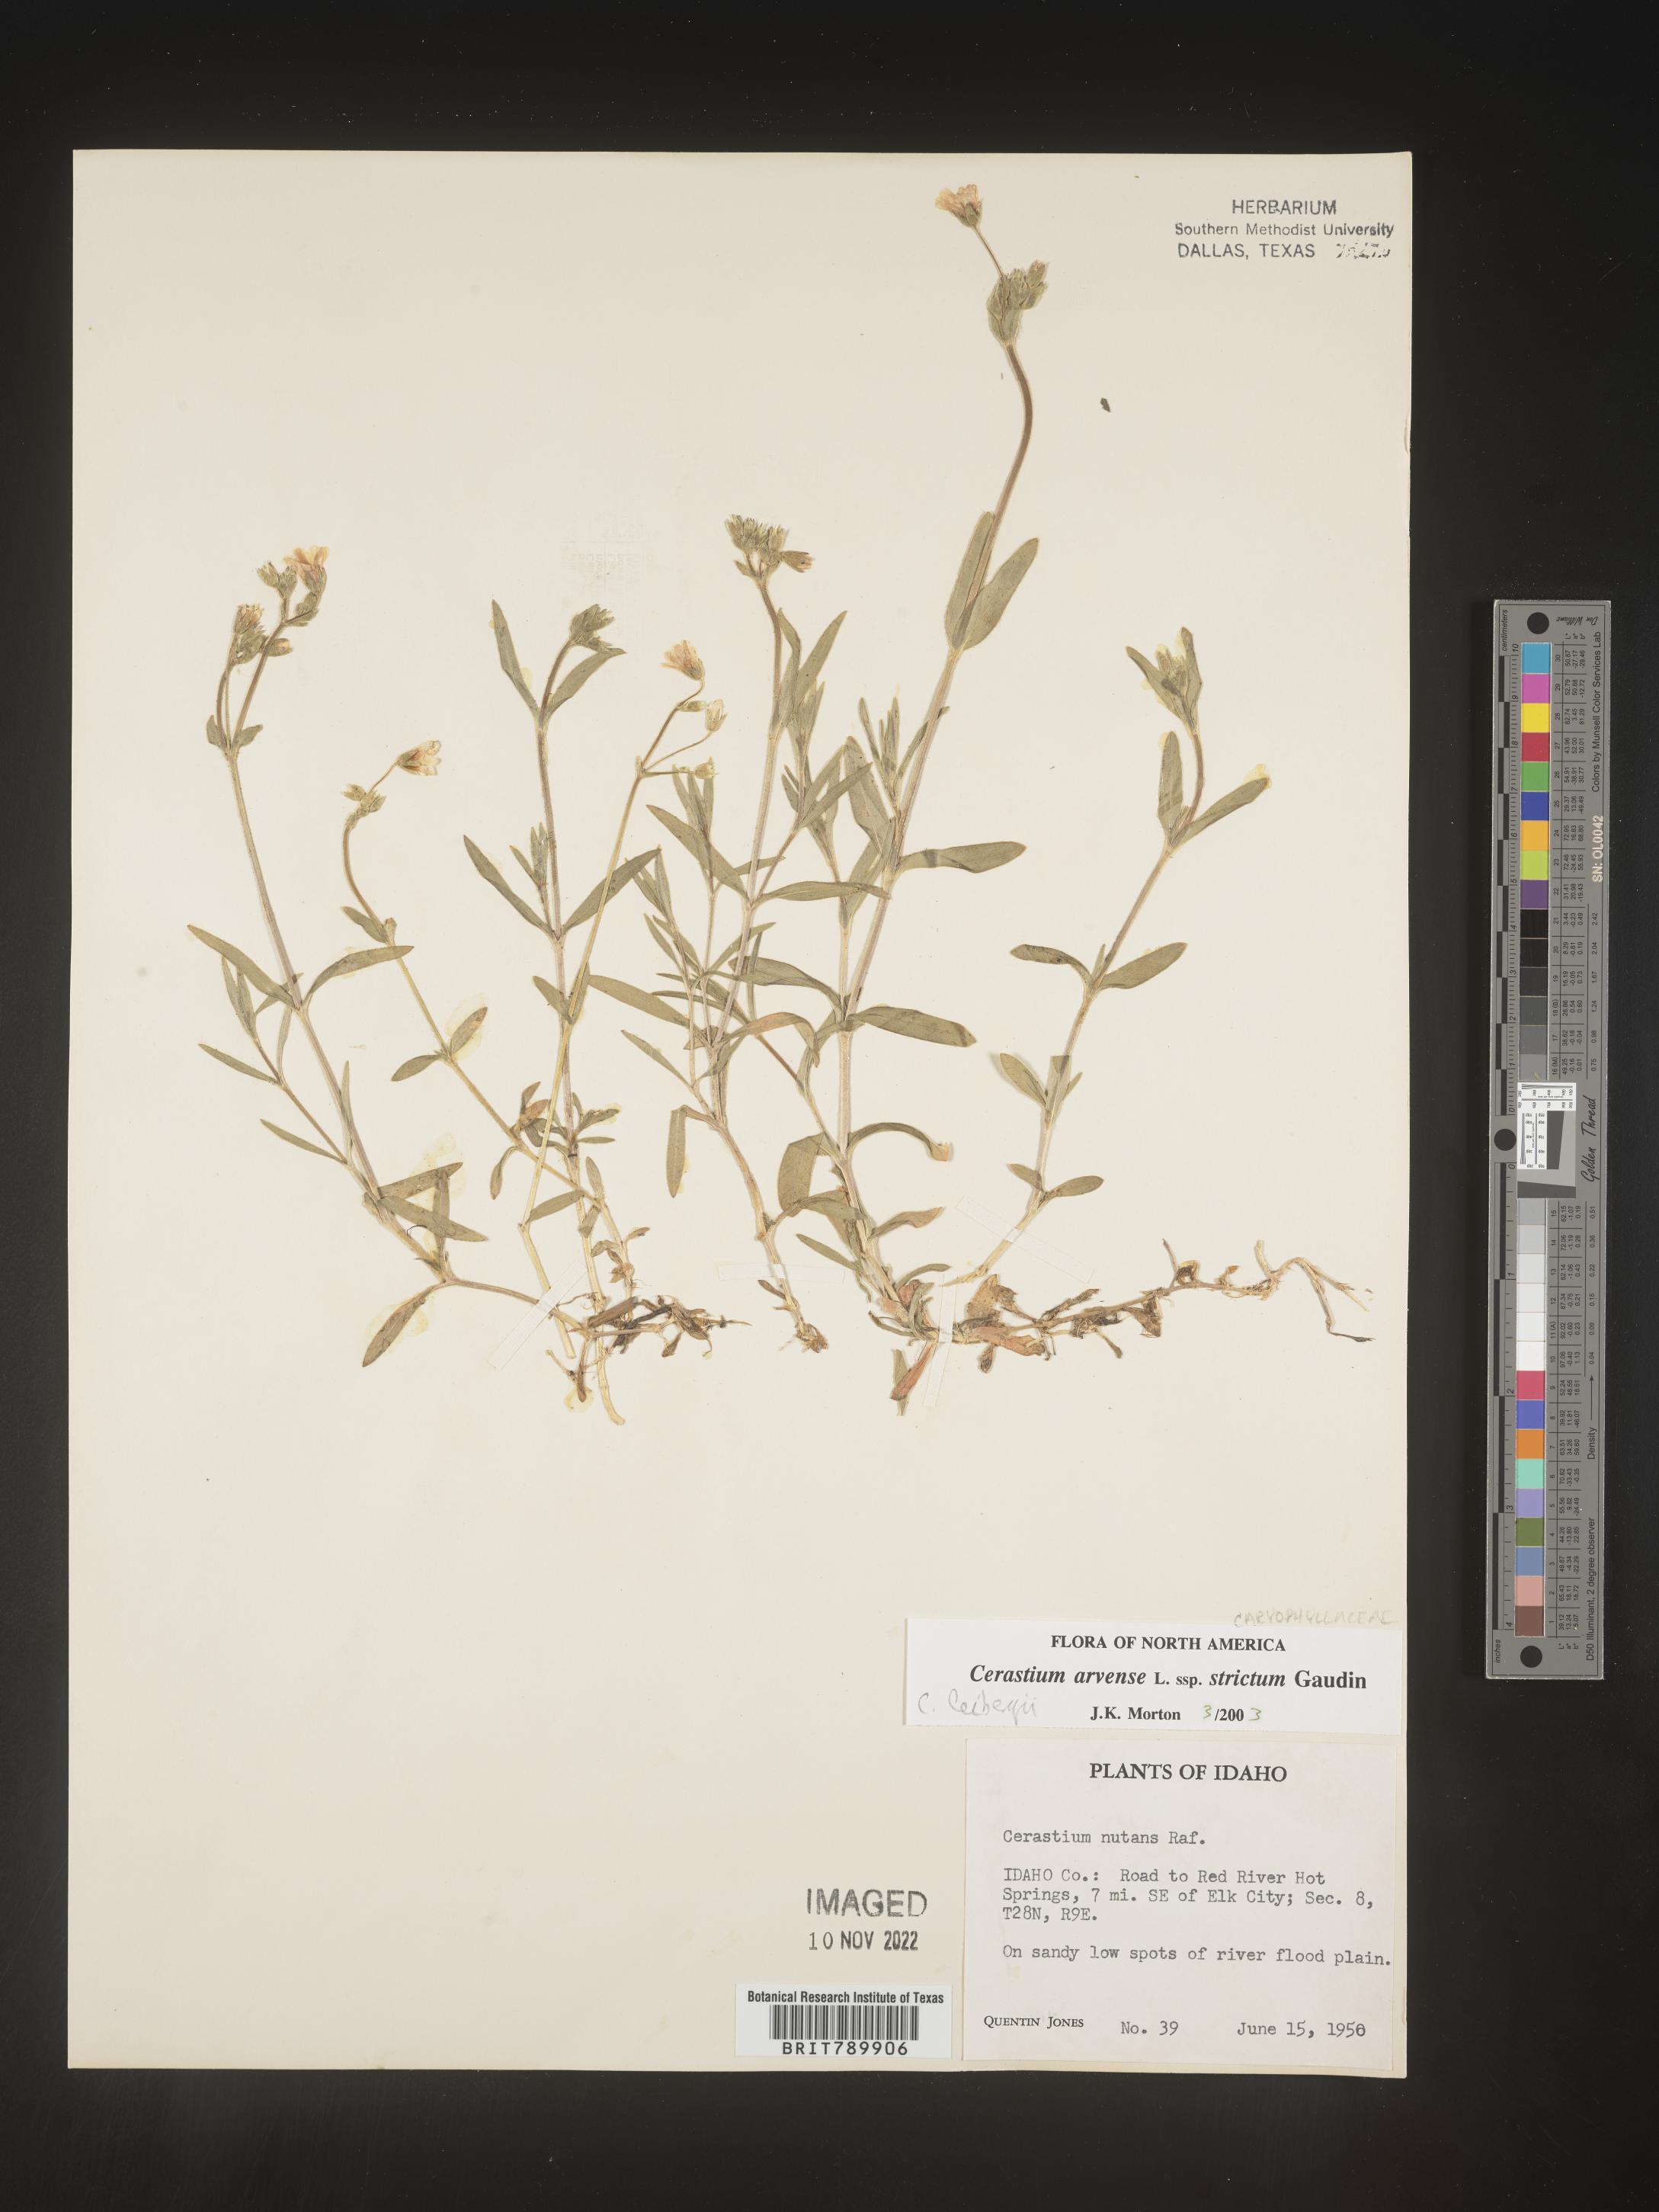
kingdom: Plantae
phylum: Tracheophyta
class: Magnoliopsida
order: Caryophyllales
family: Caryophyllaceae
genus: Cerastium
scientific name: Cerastium arvense
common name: Field mouse-ear
